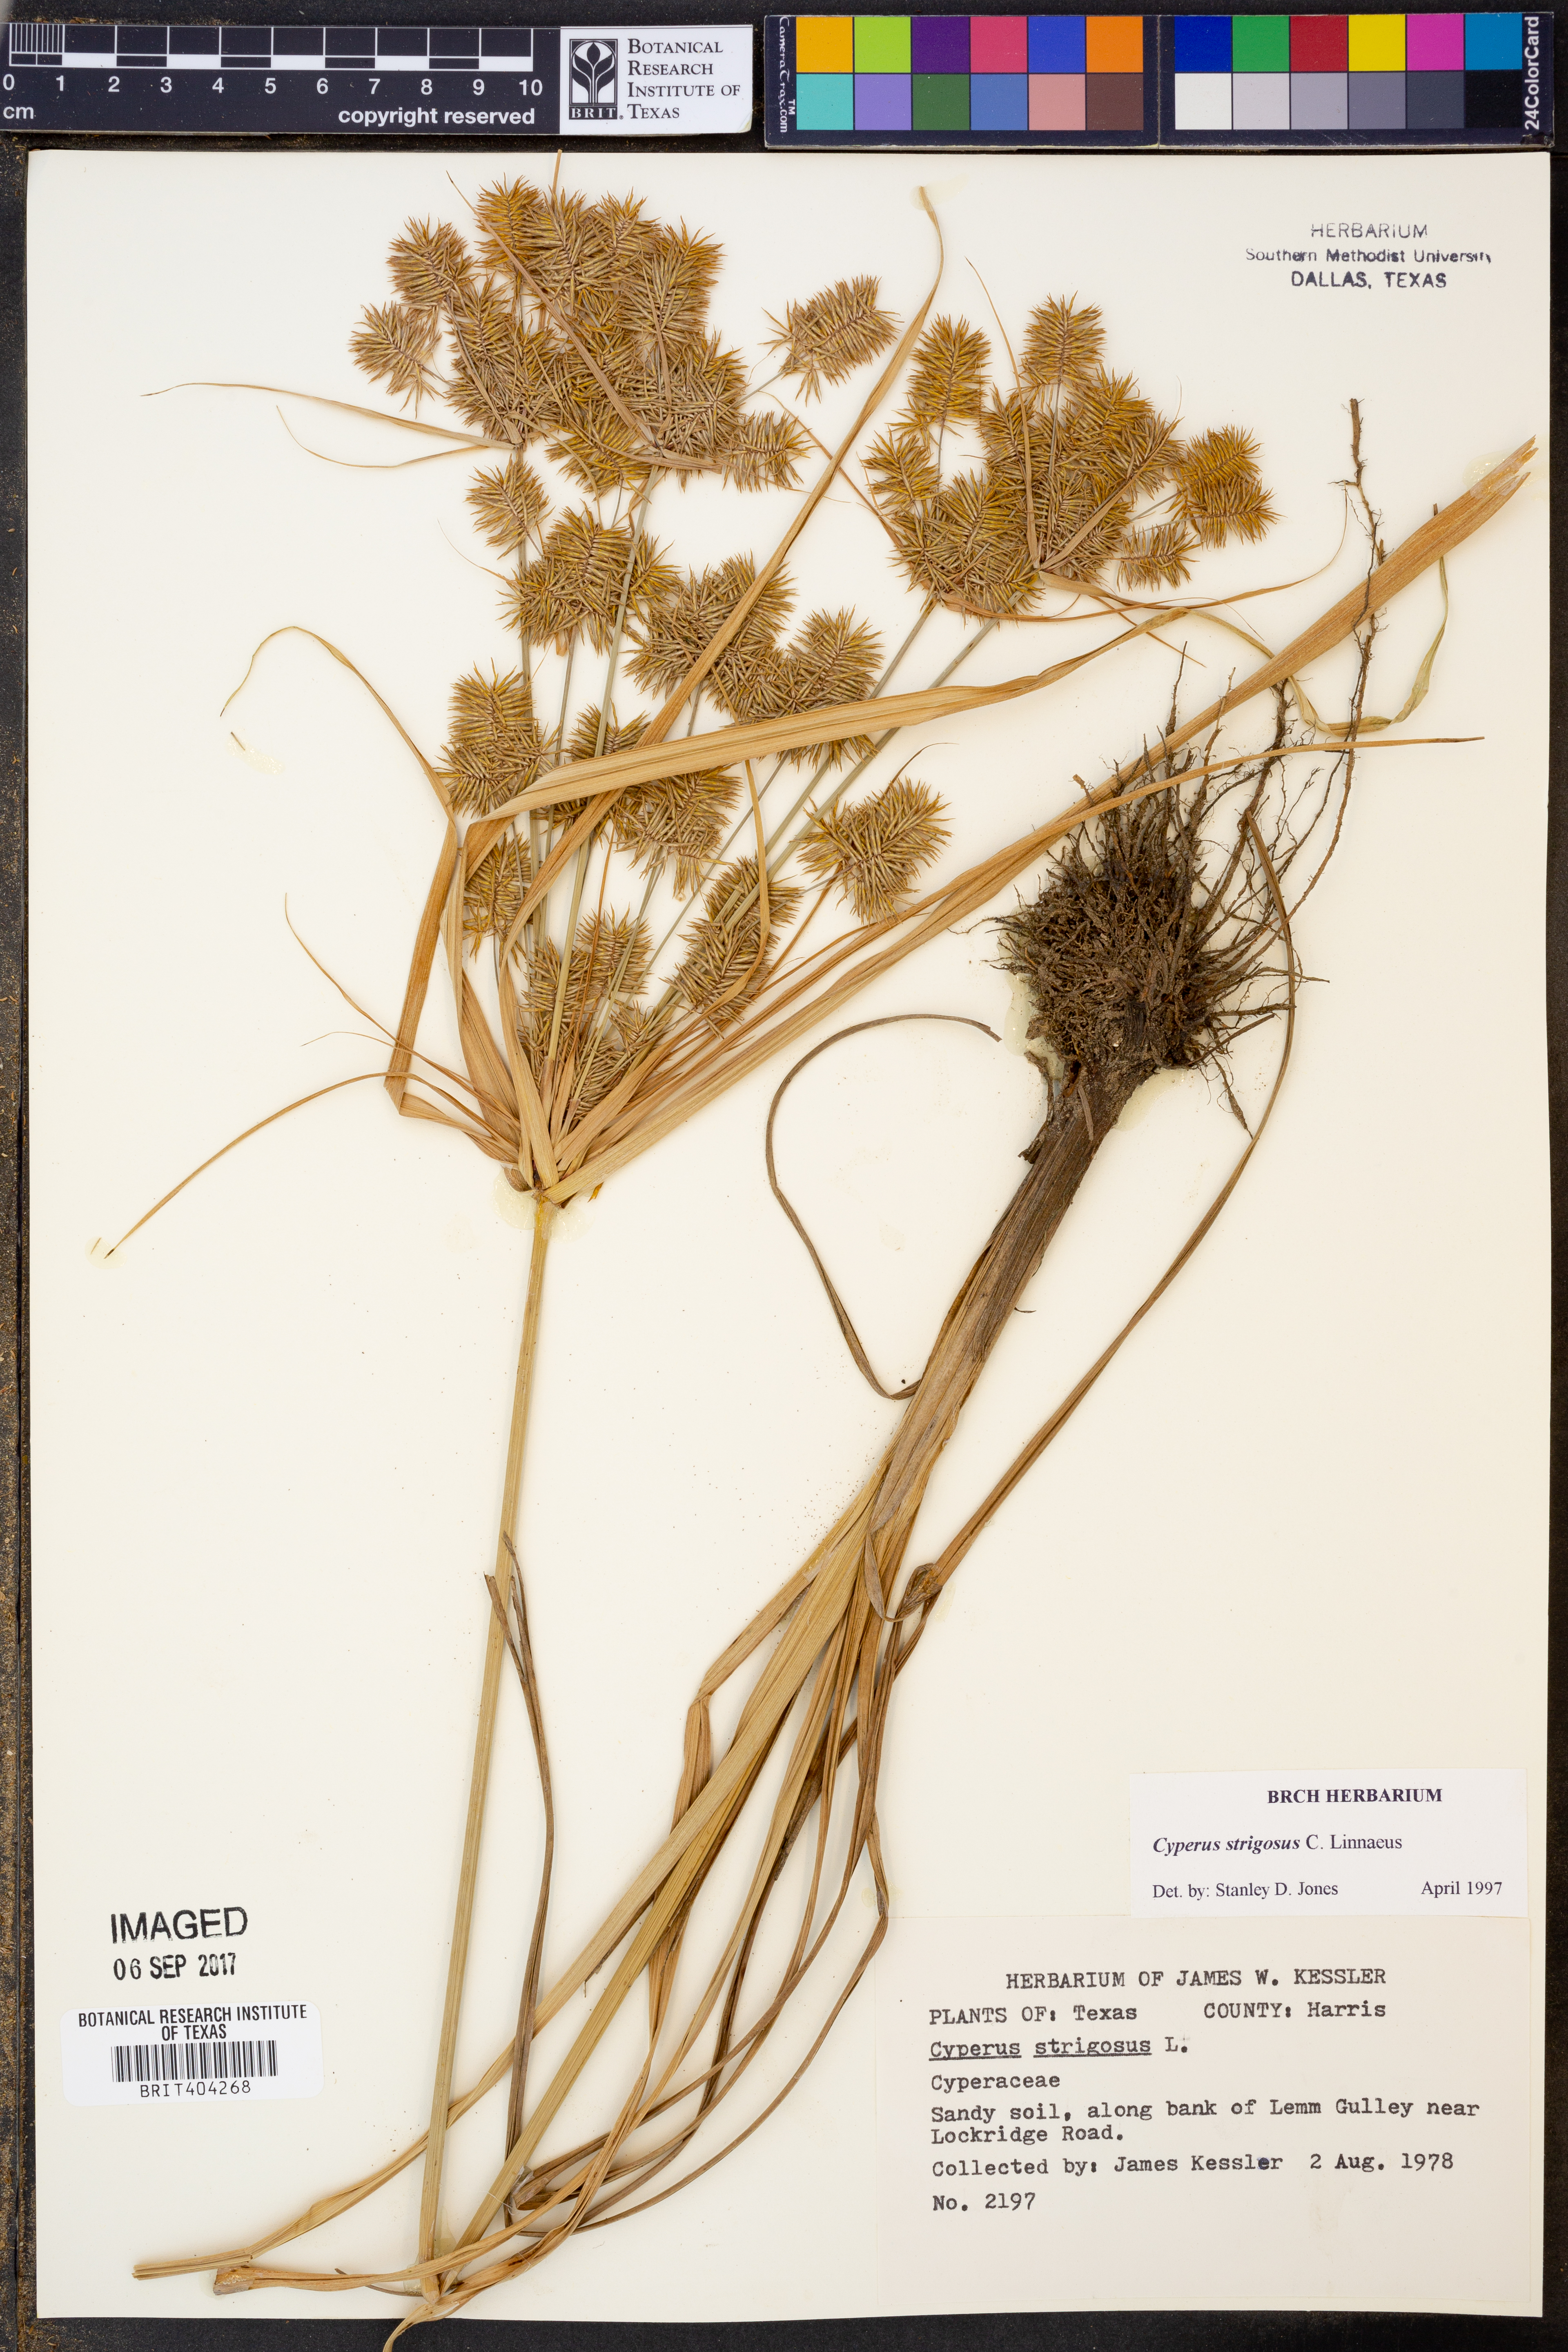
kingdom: Plantae
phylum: Tracheophyta
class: Liliopsida
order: Poales
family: Cyperaceae
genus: Cyperus
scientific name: Cyperus strigosus
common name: False nutsedge
